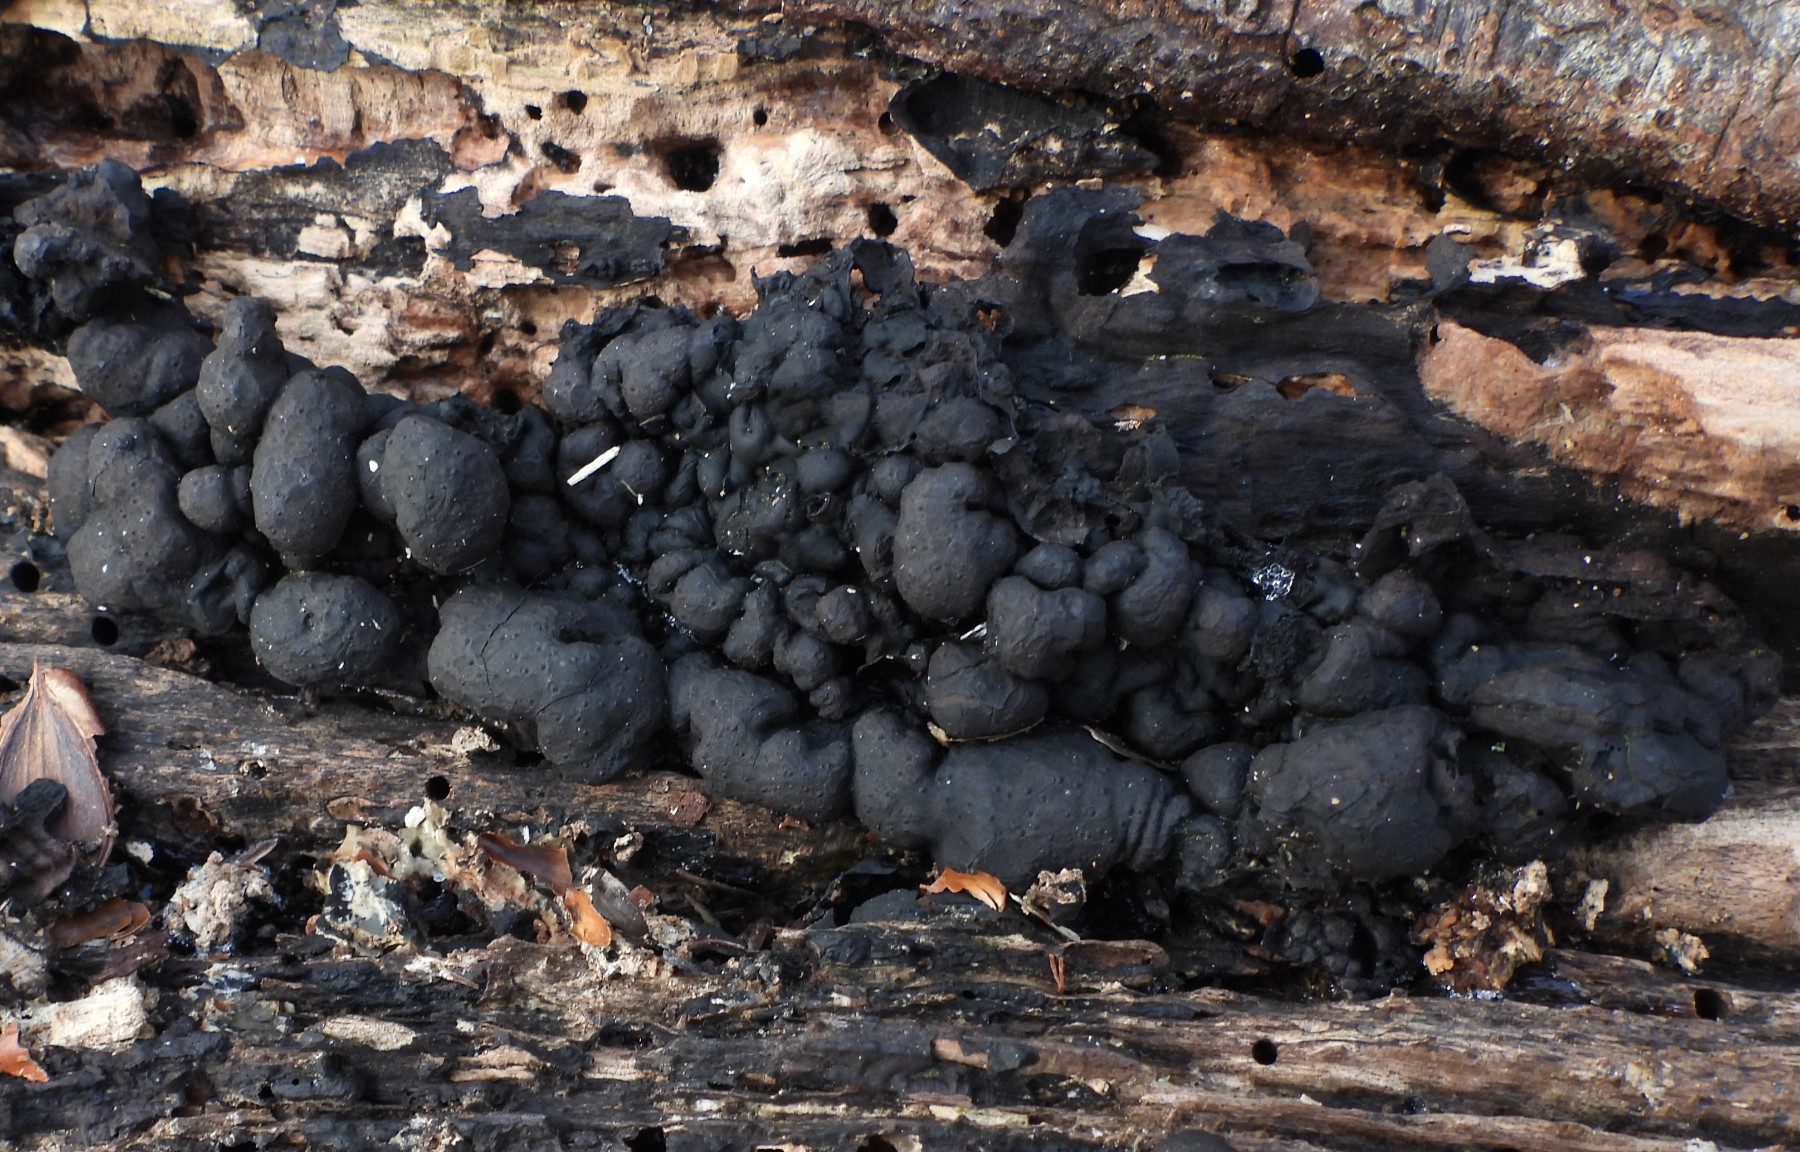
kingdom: Fungi
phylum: Ascomycota
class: Sordariomycetes
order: Xylariales
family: Xylariaceae
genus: Kretzschmaria
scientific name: Kretzschmaria deusta
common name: stor kulsvamp
